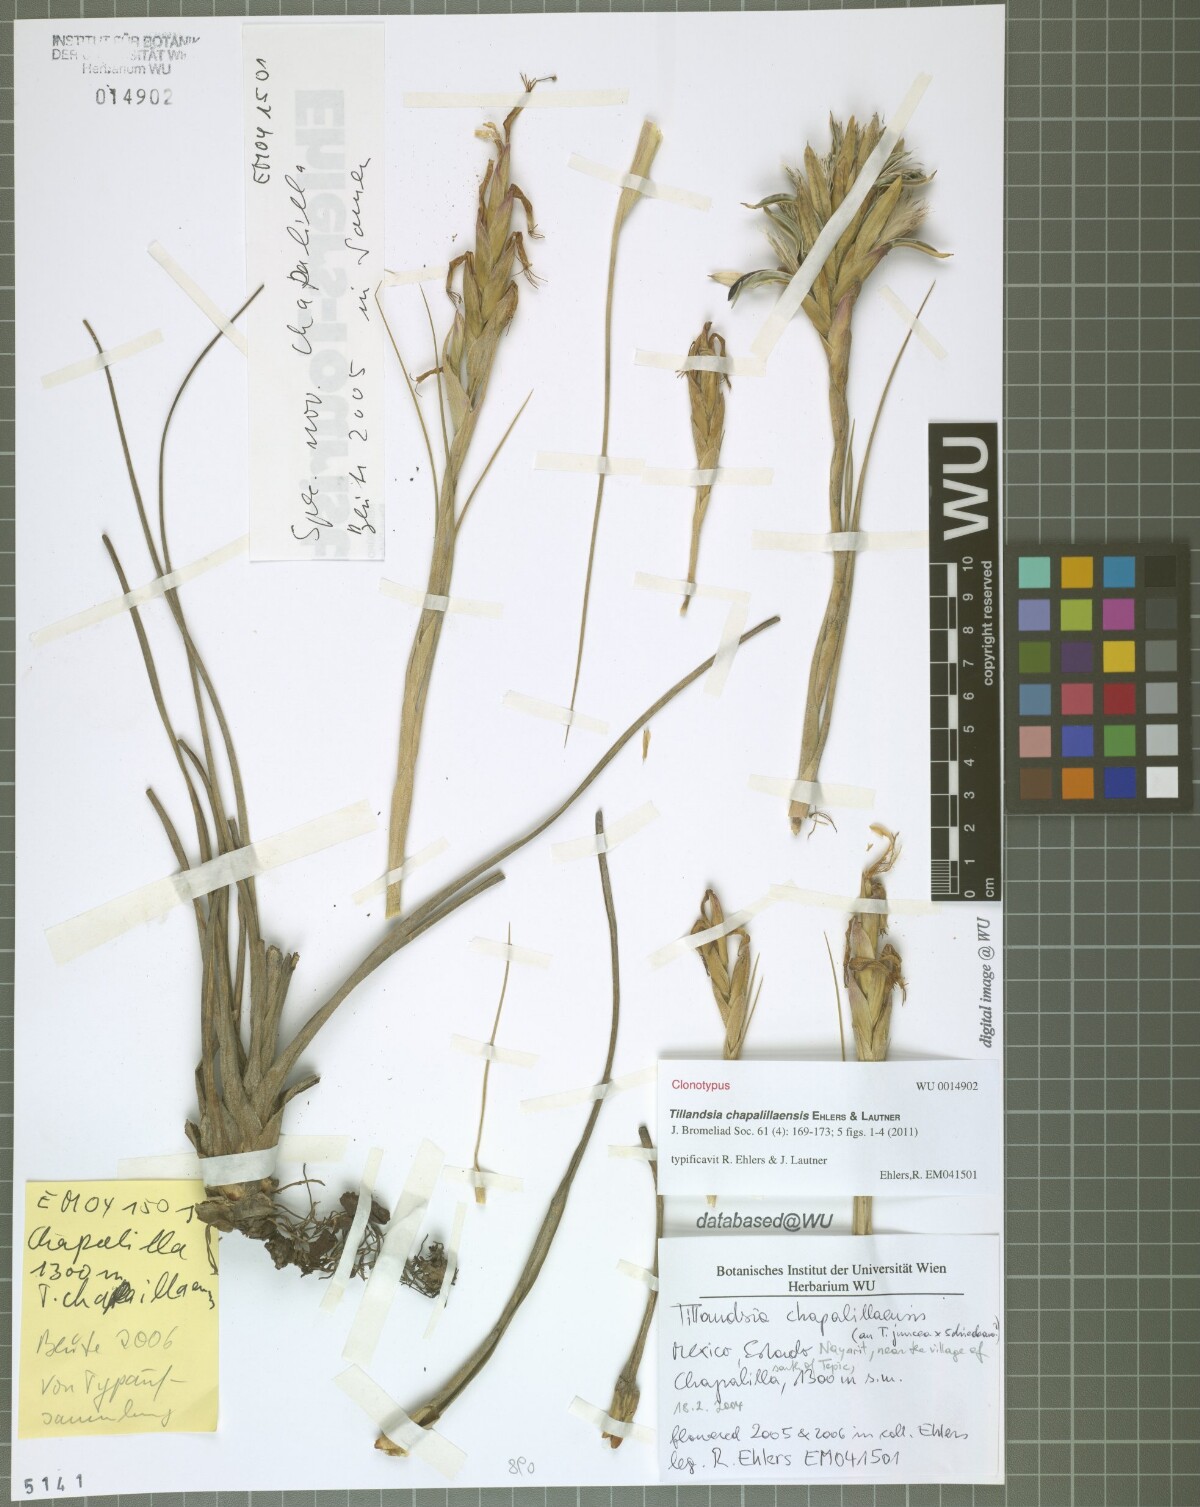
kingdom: Plantae
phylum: Tracheophyta
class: Liliopsida
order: Poales
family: Bromeliaceae
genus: Tillandsia
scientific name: Tillandsia chapalillaensis
